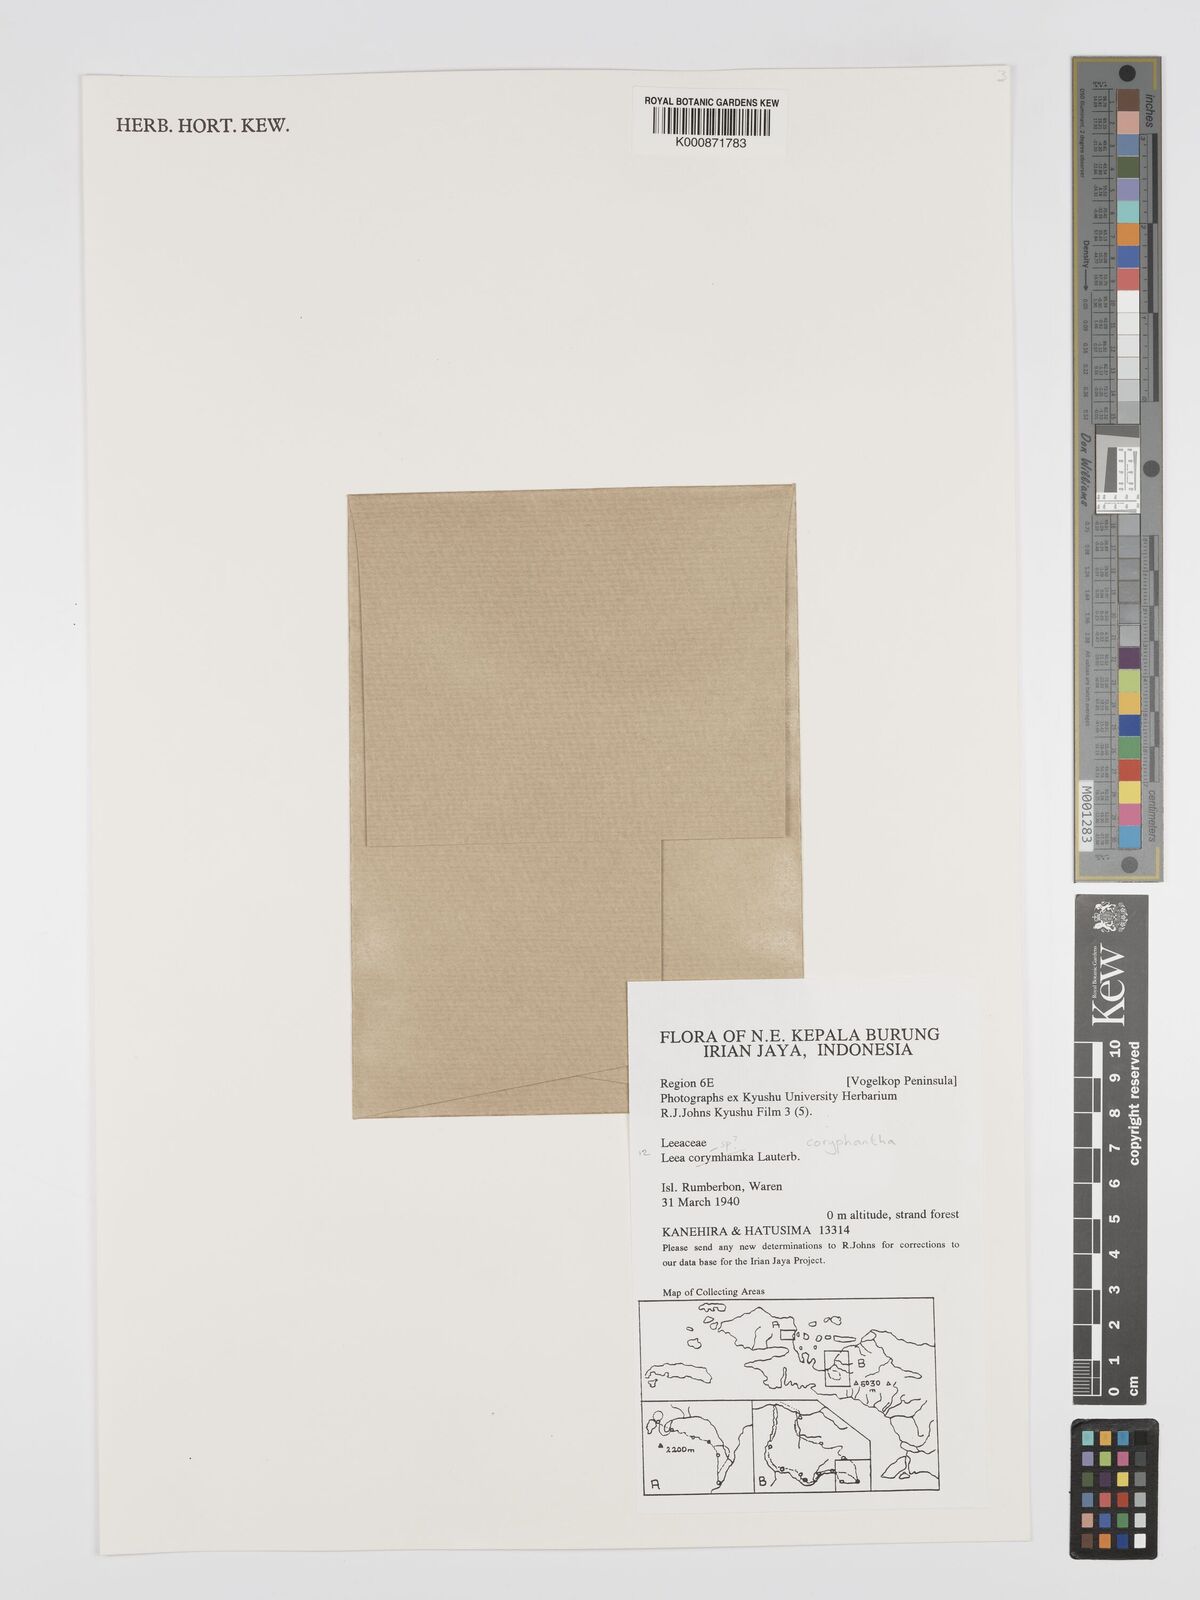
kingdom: Plantae
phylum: Tracheophyta
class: Magnoliopsida
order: Vitales
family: Vitaceae
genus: Leea
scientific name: Leea coryphantha
